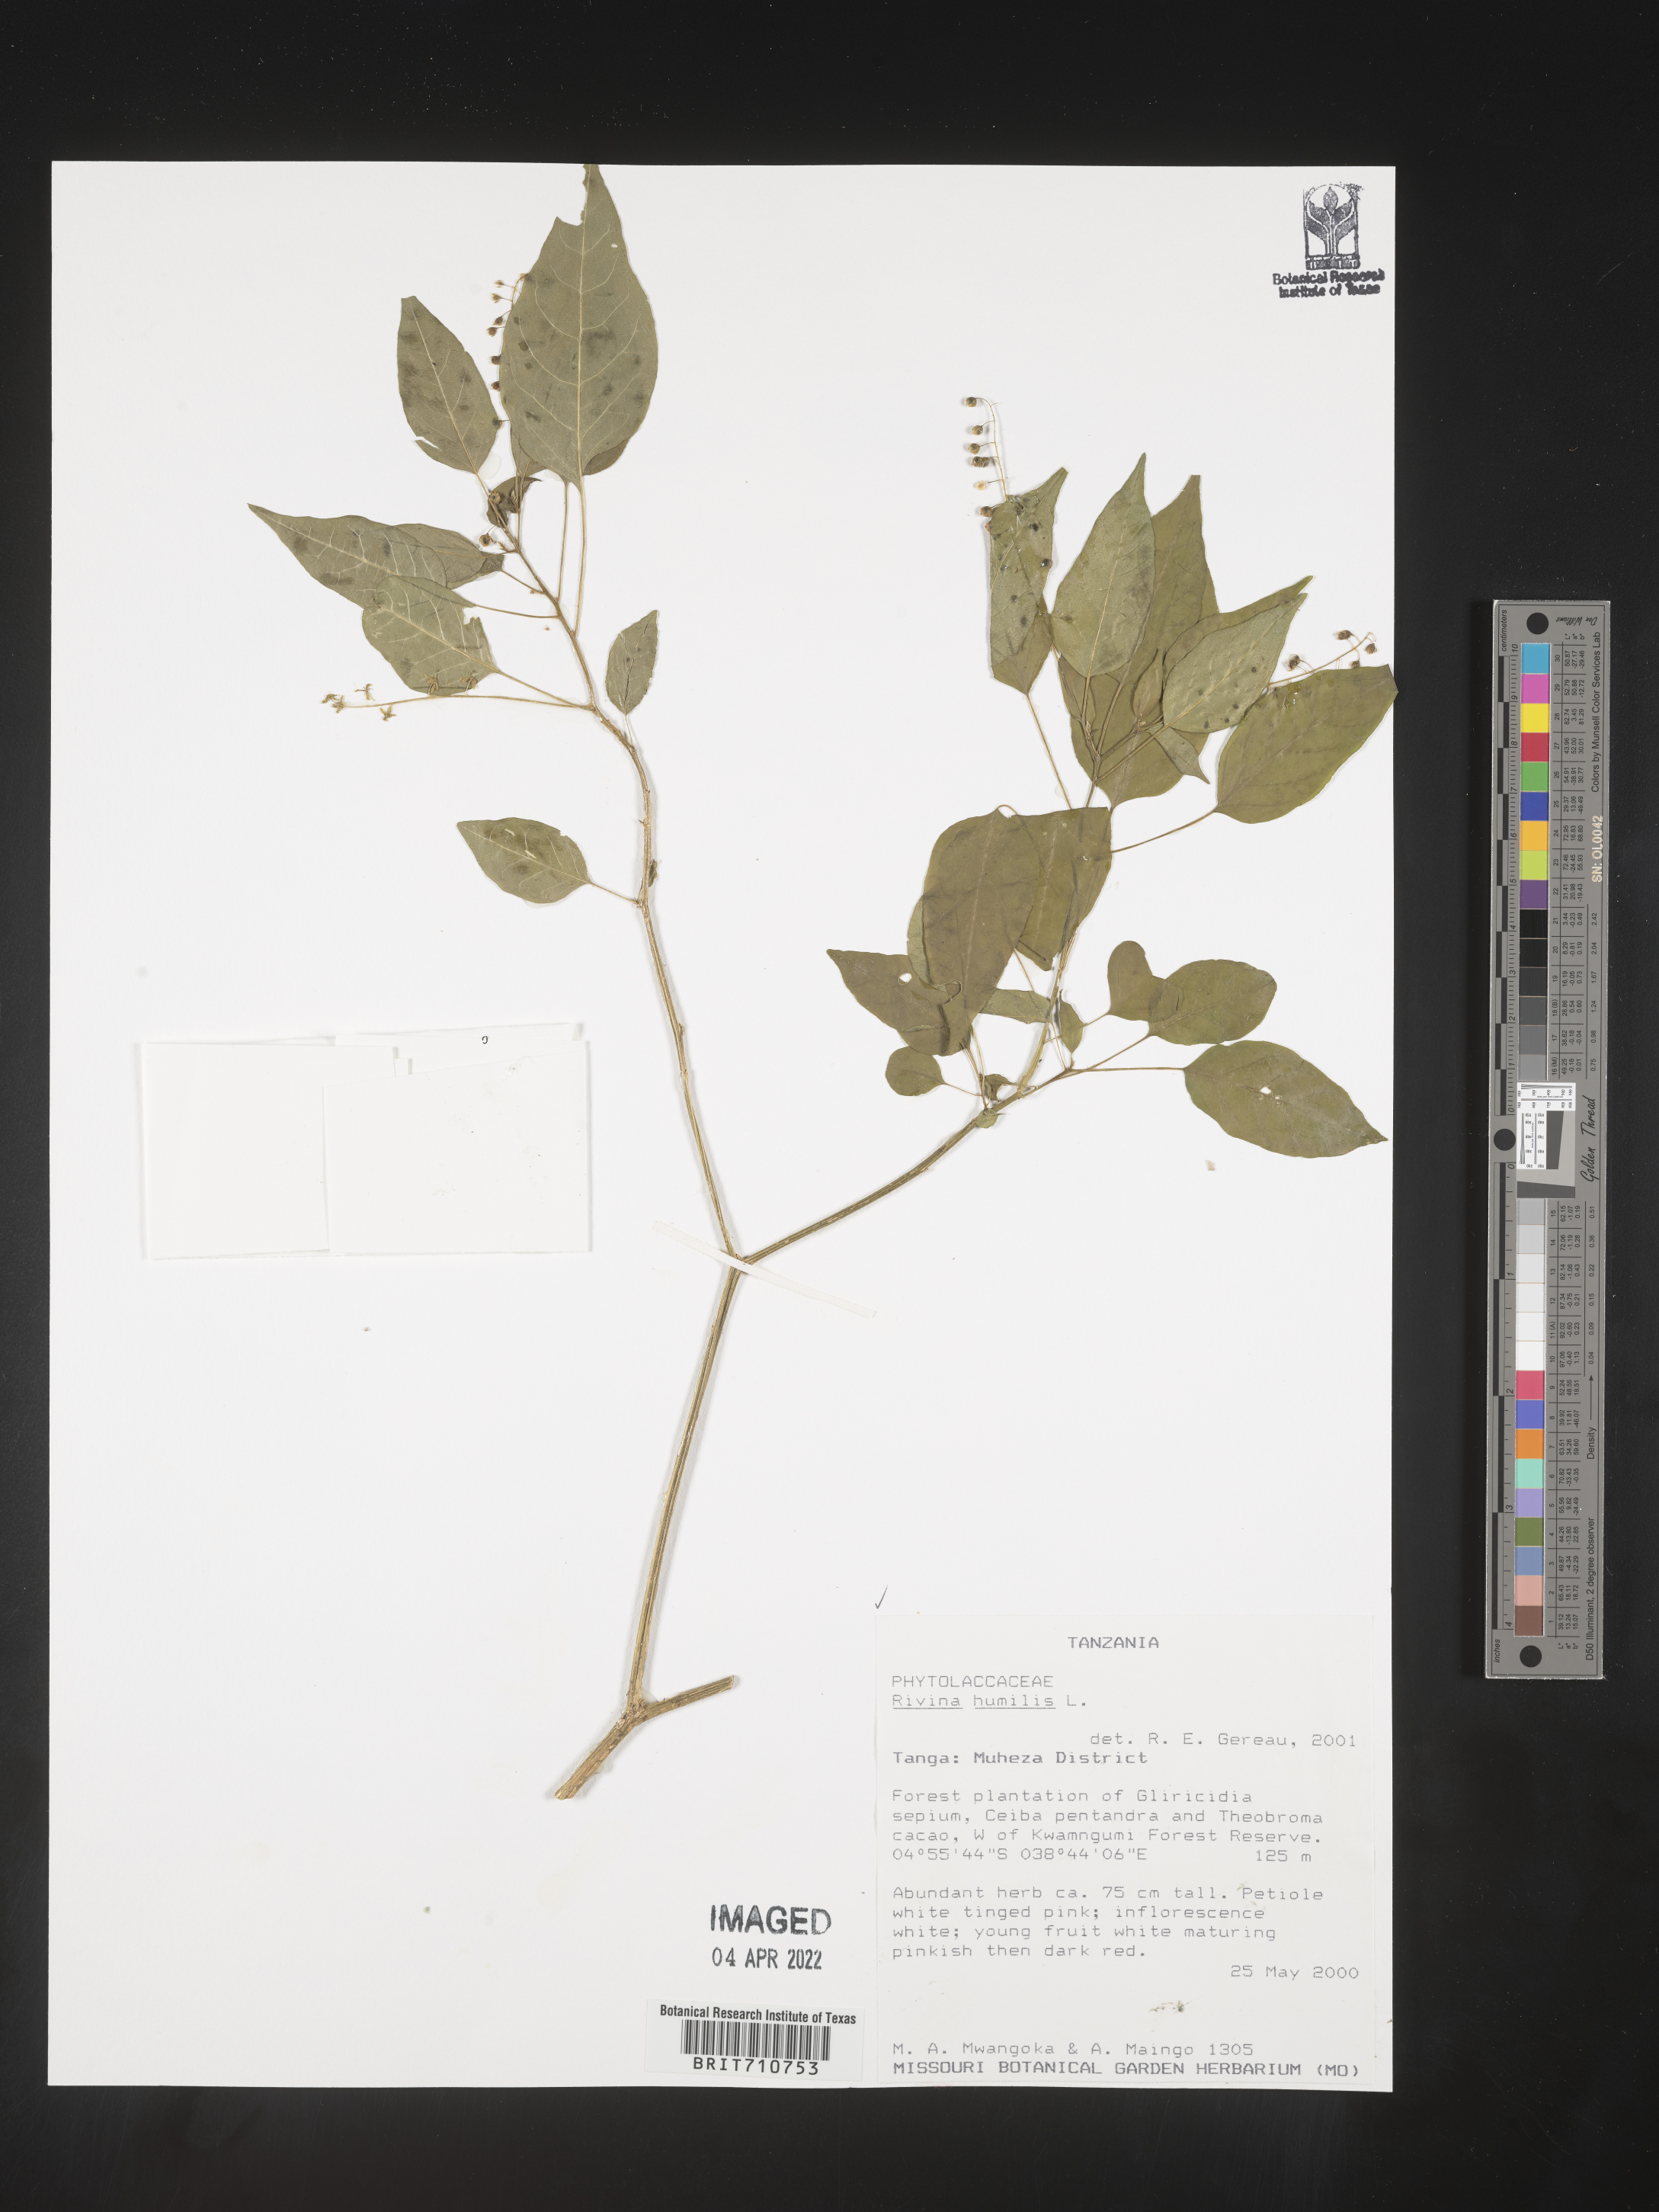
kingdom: Plantae
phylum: Tracheophyta
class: Magnoliopsida
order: Caryophyllales
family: Phytolaccaceae
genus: Rivina
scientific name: Rivina
